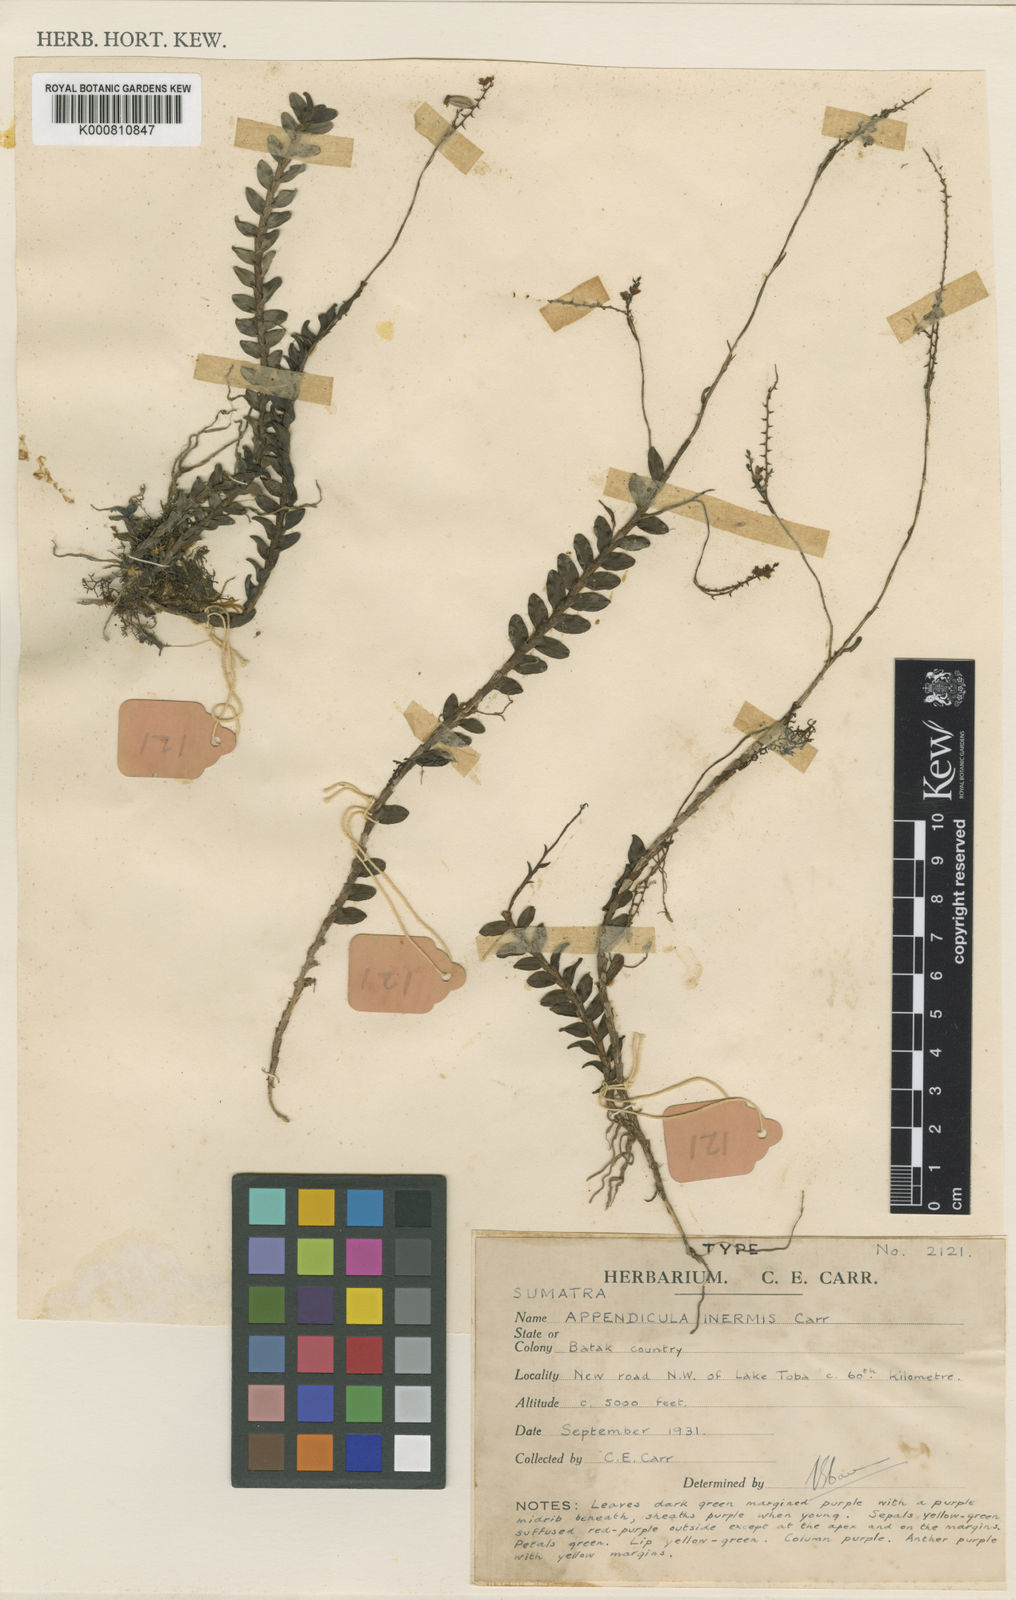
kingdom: Plantae
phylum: Tracheophyta
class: Liliopsida
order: Asparagales
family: Orchidaceae
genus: Appendicula
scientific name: Appendicula inermis
